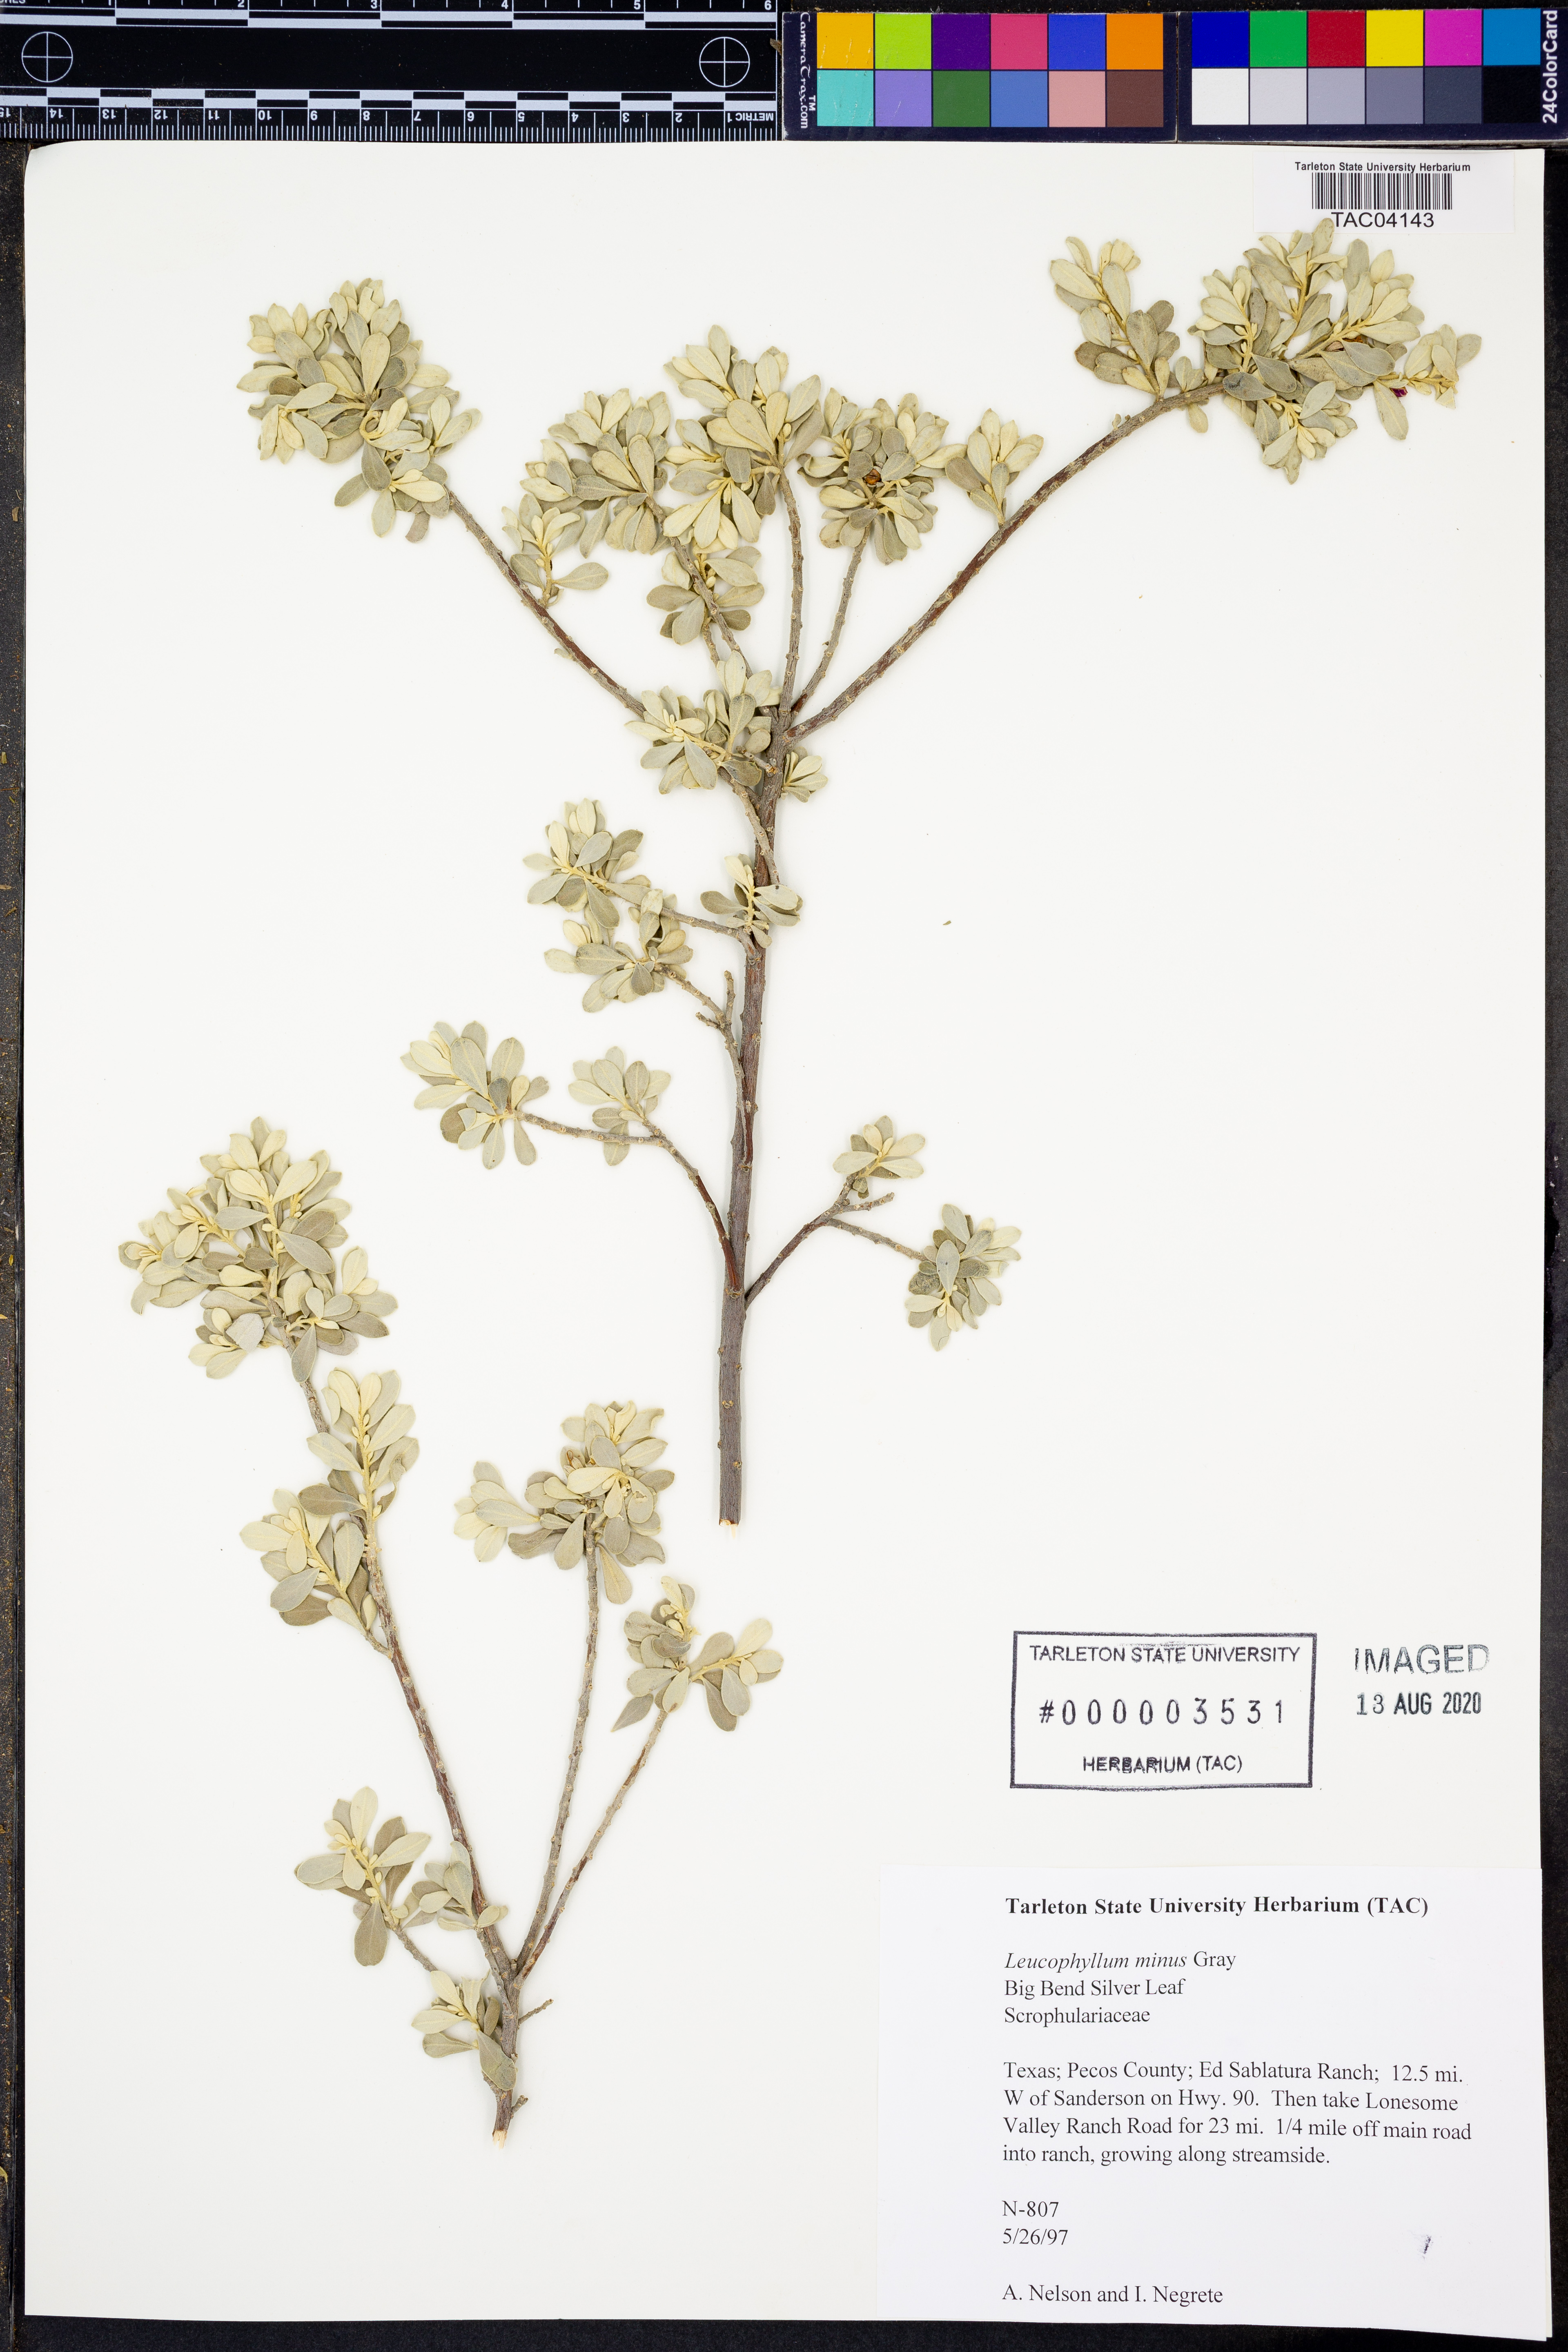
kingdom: Plantae
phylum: Tracheophyta
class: Magnoliopsida
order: Lamiales
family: Scrophulariaceae
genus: Leucophyllum
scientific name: Leucophyllum minus
